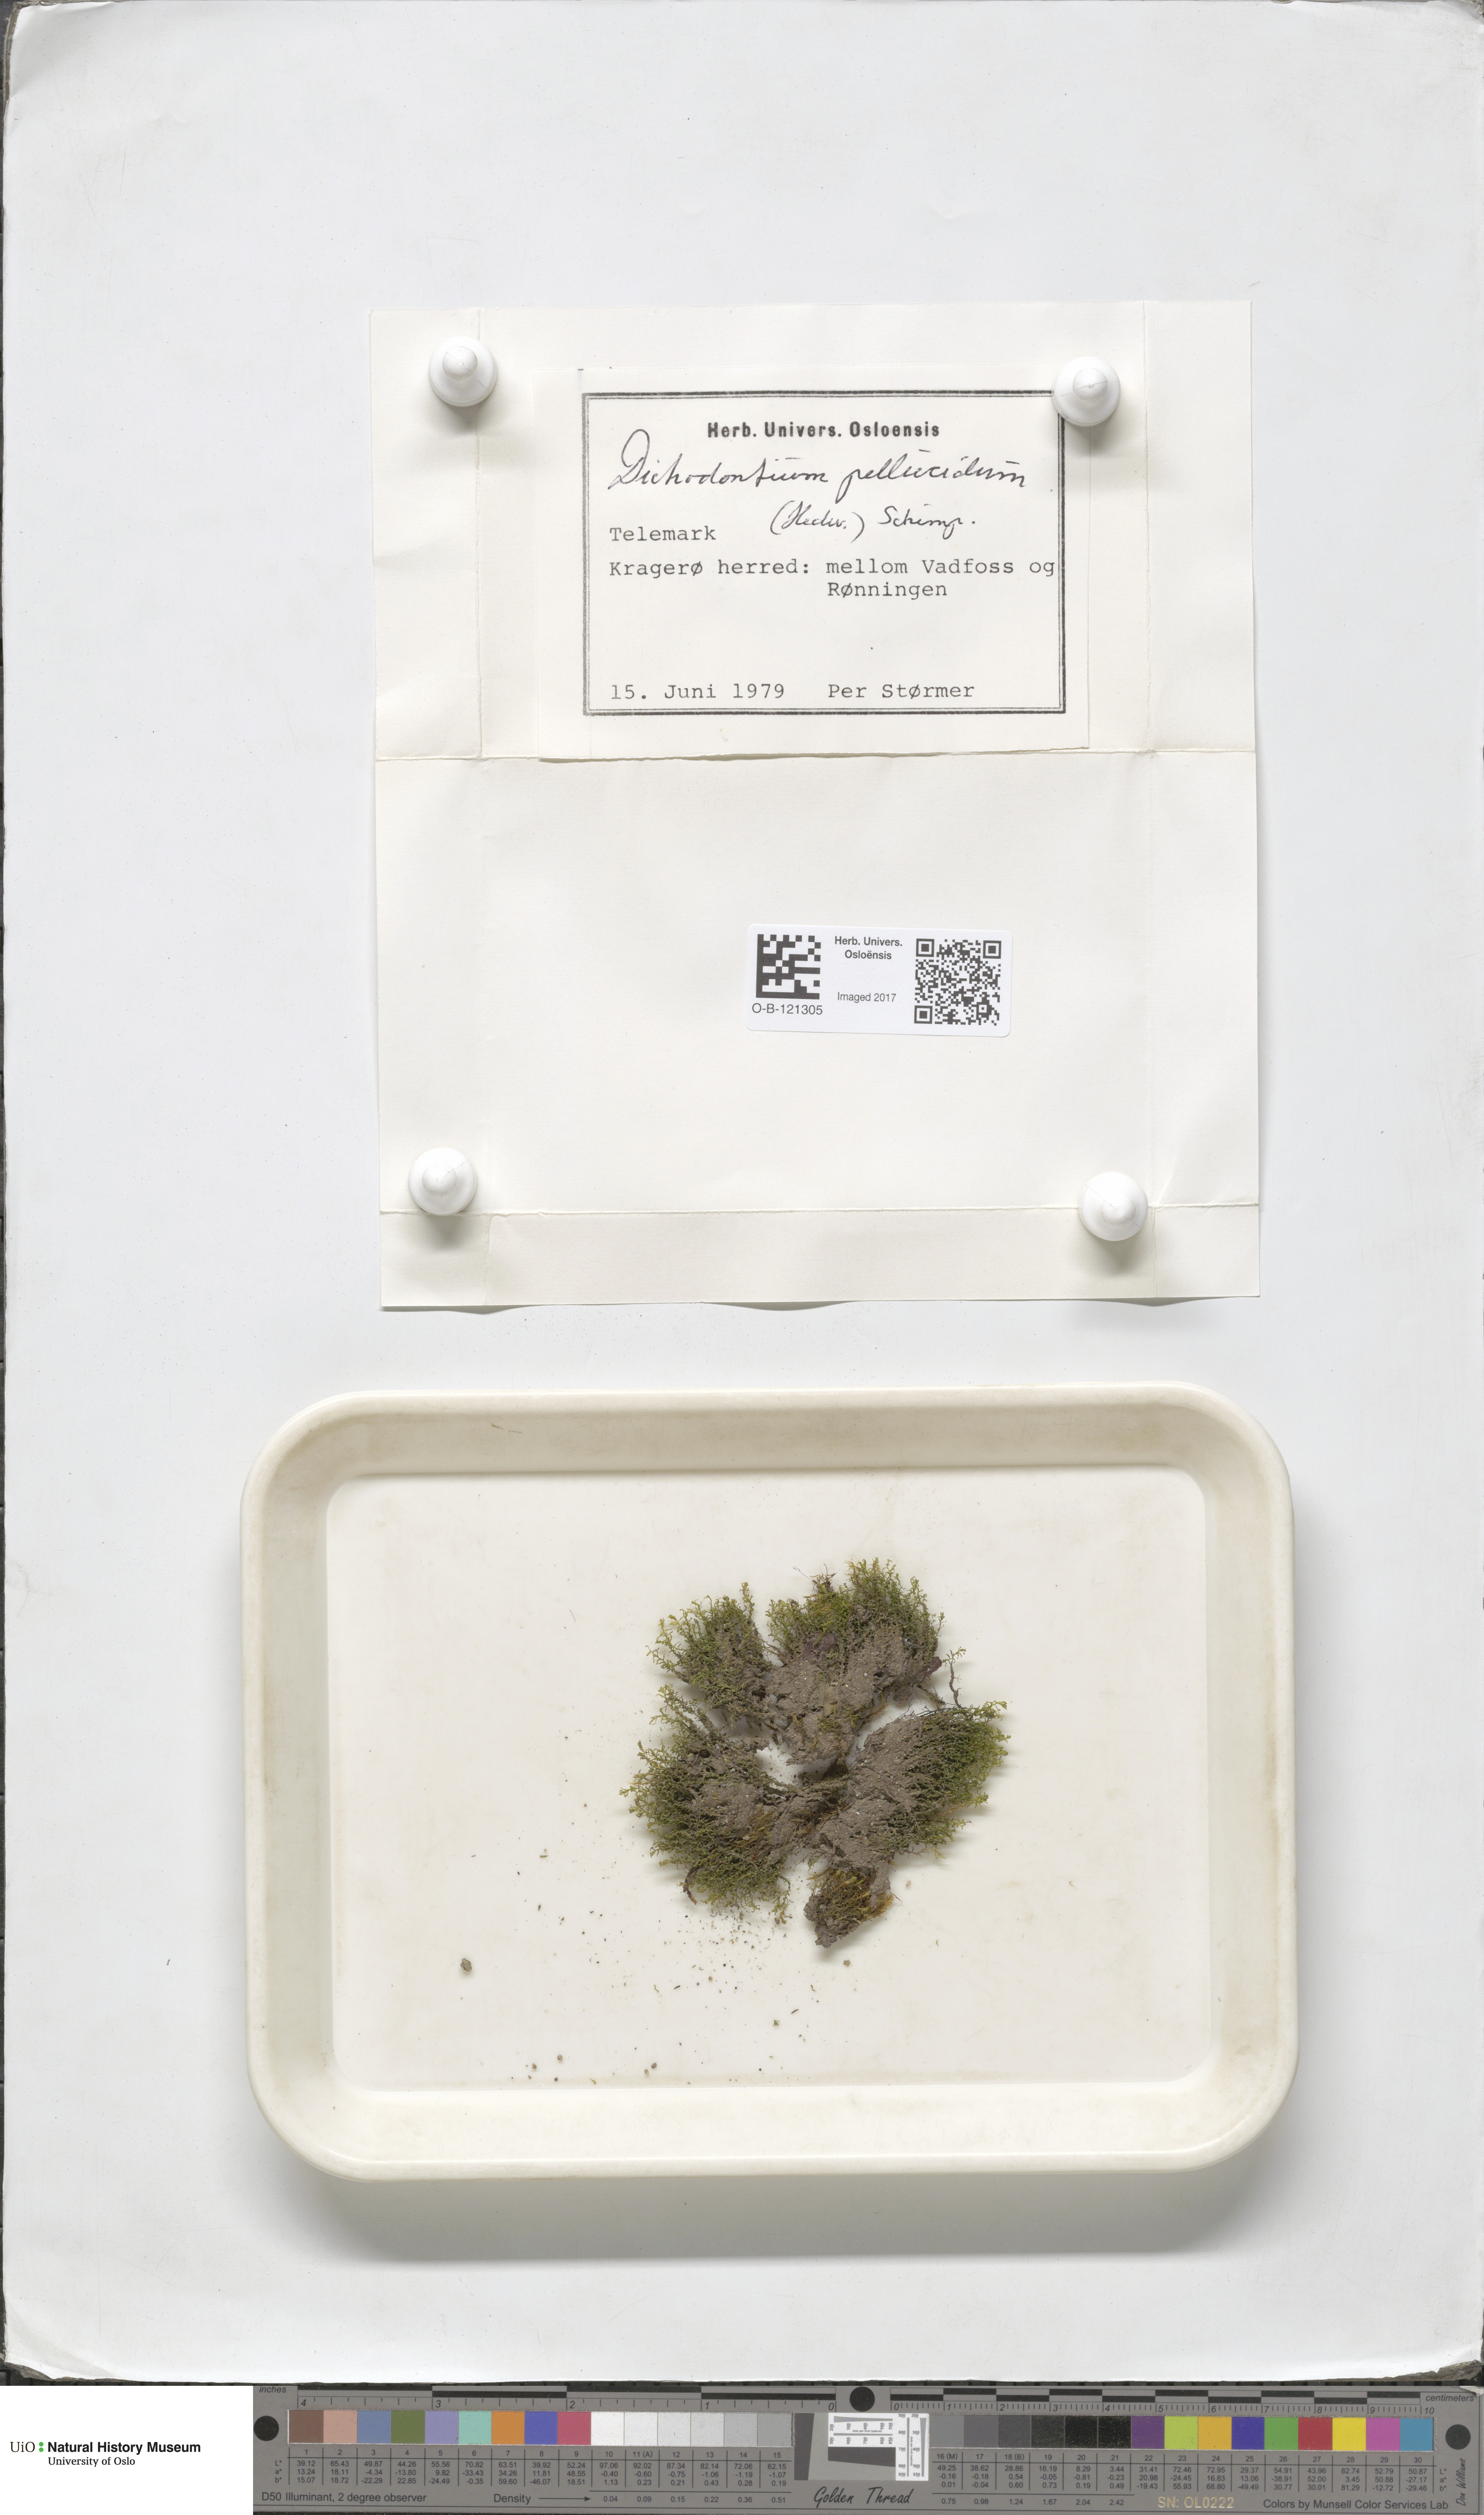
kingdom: Plantae
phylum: Bryophyta
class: Bryopsida
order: Dicranales
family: Aongstroemiaceae
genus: Dichodontium
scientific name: Dichodontium pellucidum
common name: Transparent fork moss
